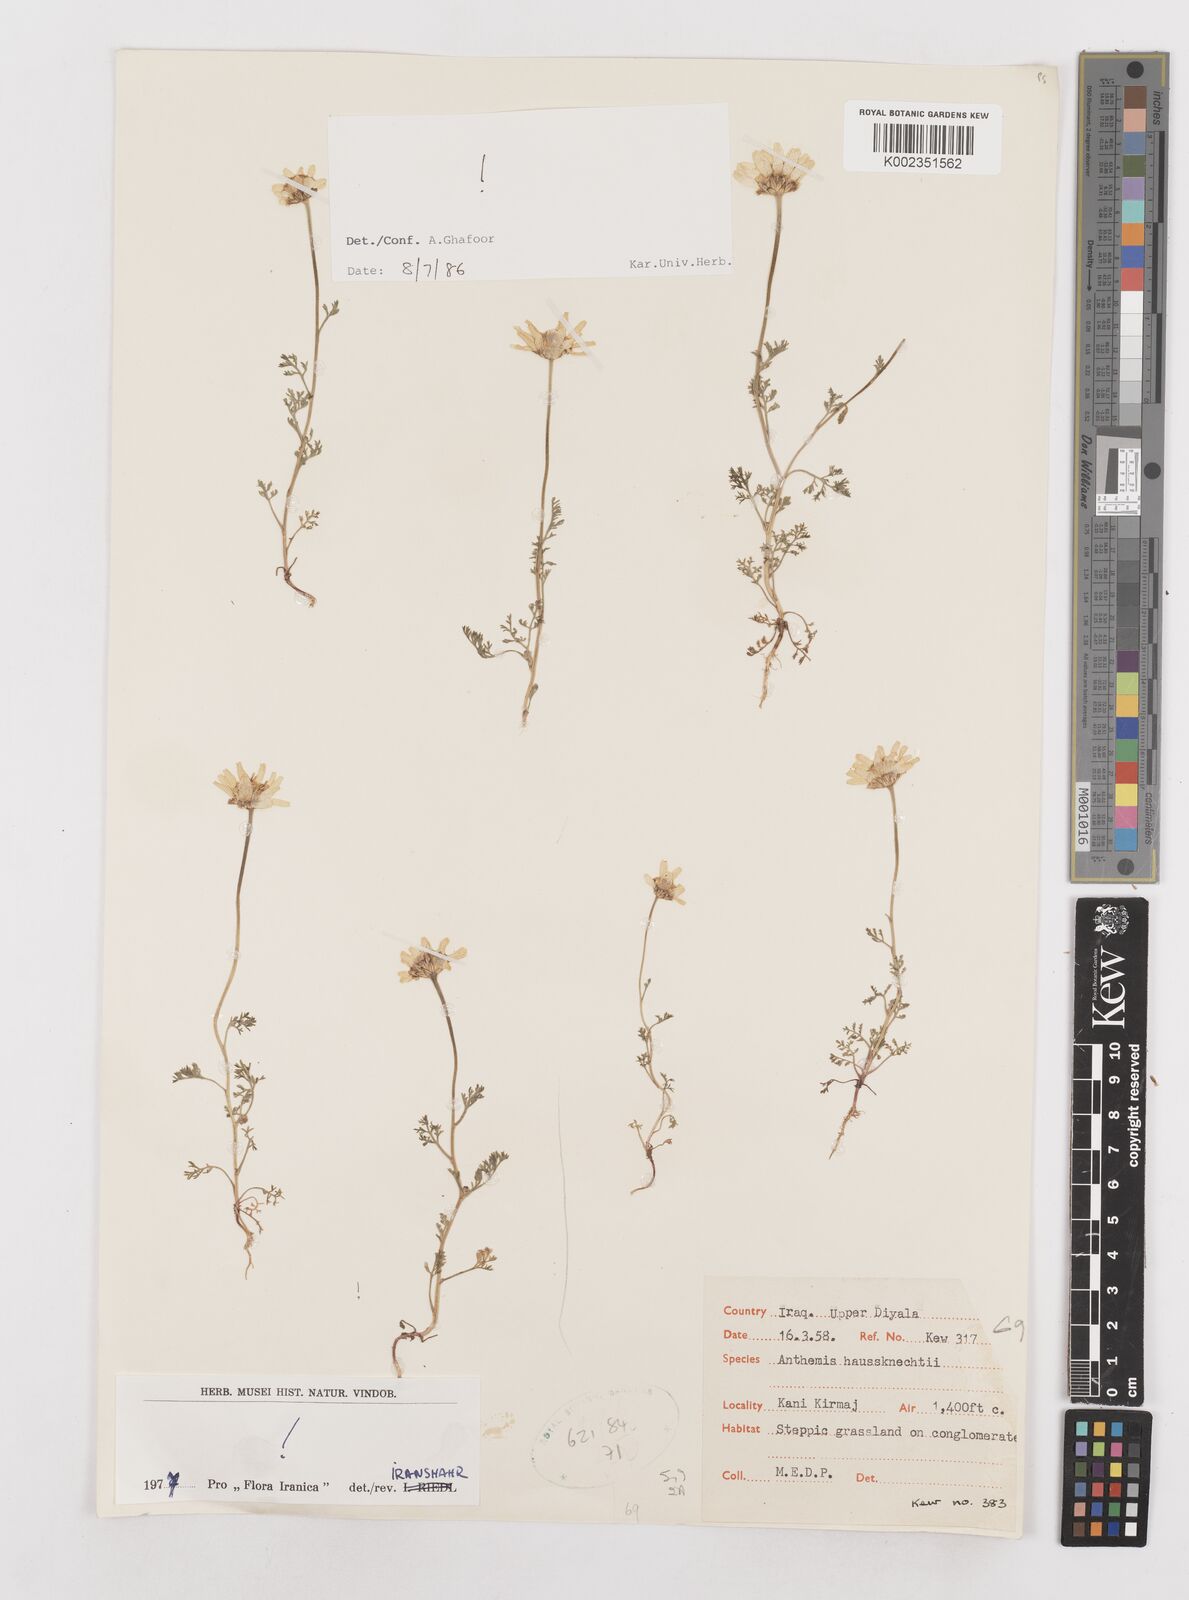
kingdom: Plantae
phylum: Tracheophyta
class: Magnoliopsida
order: Asterales
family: Asteraceae
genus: Anthemis
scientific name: Anthemis haussknechtii
